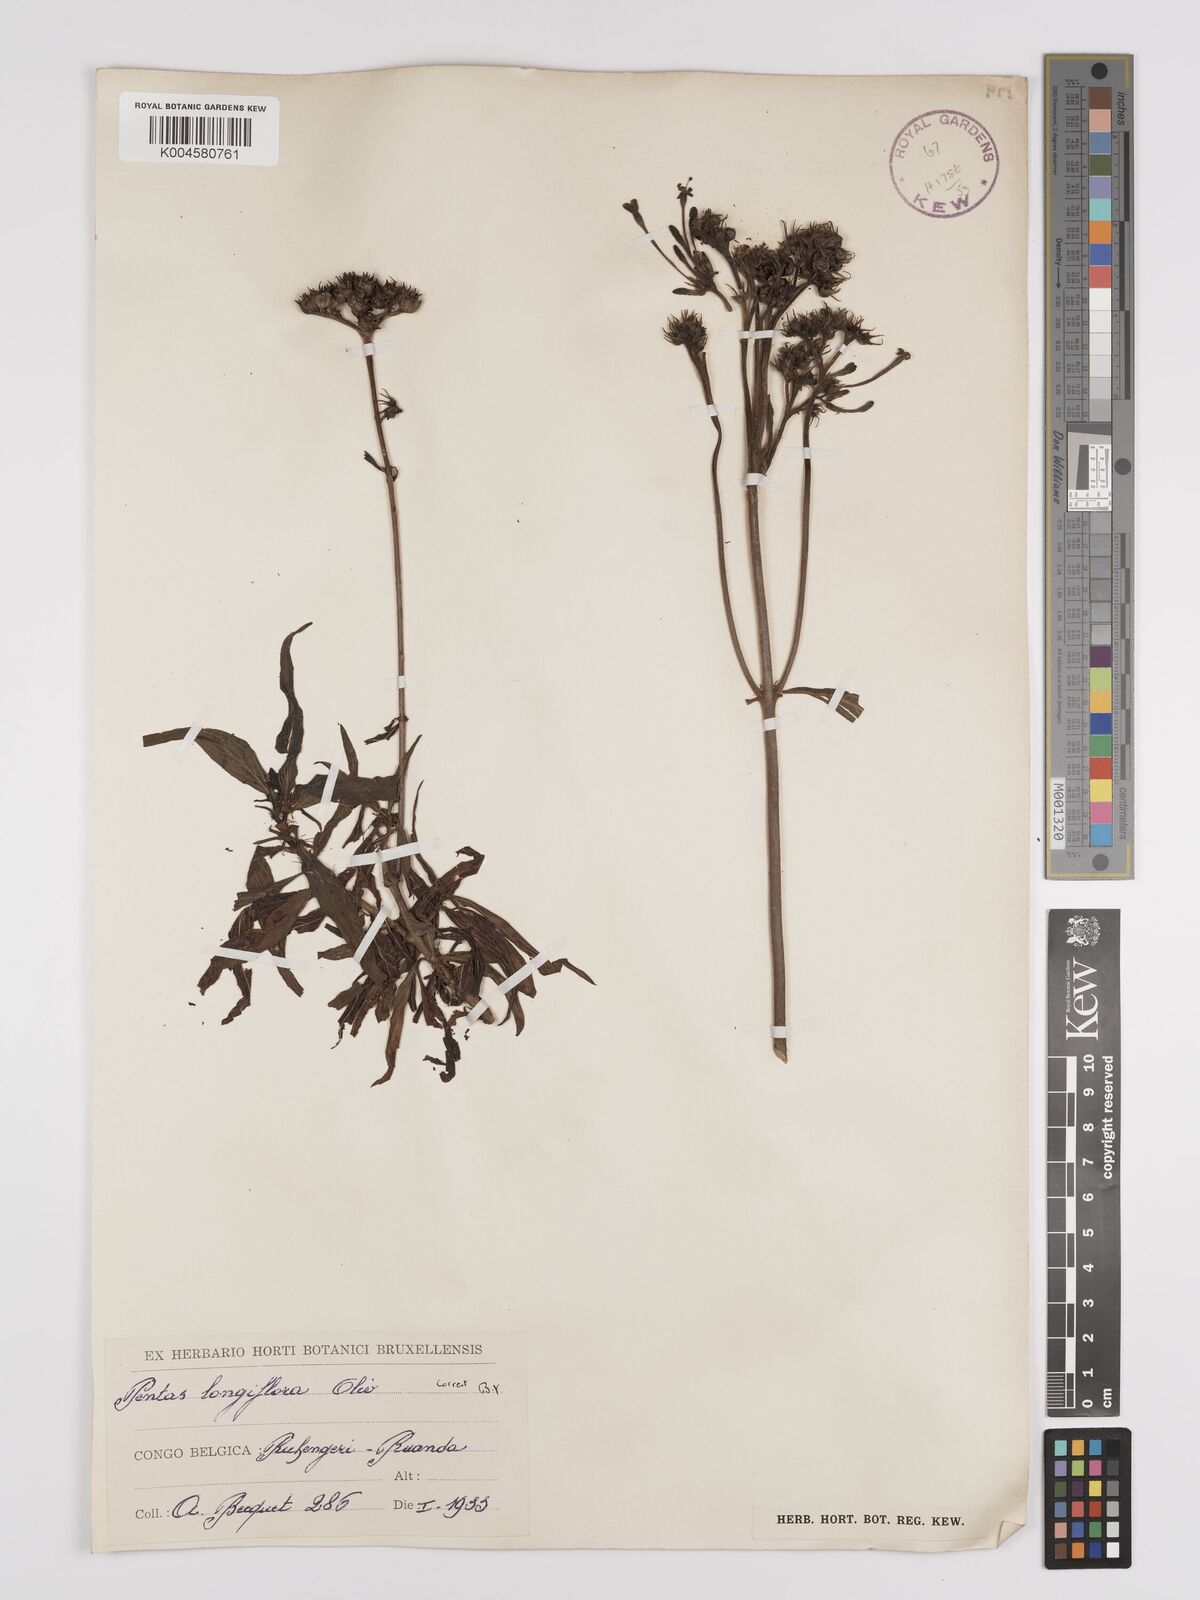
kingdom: Plantae
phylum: Tracheophyta
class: Magnoliopsida
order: Gentianales
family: Rubiaceae
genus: Dolichopentas
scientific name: Dolichopentas longiflora
